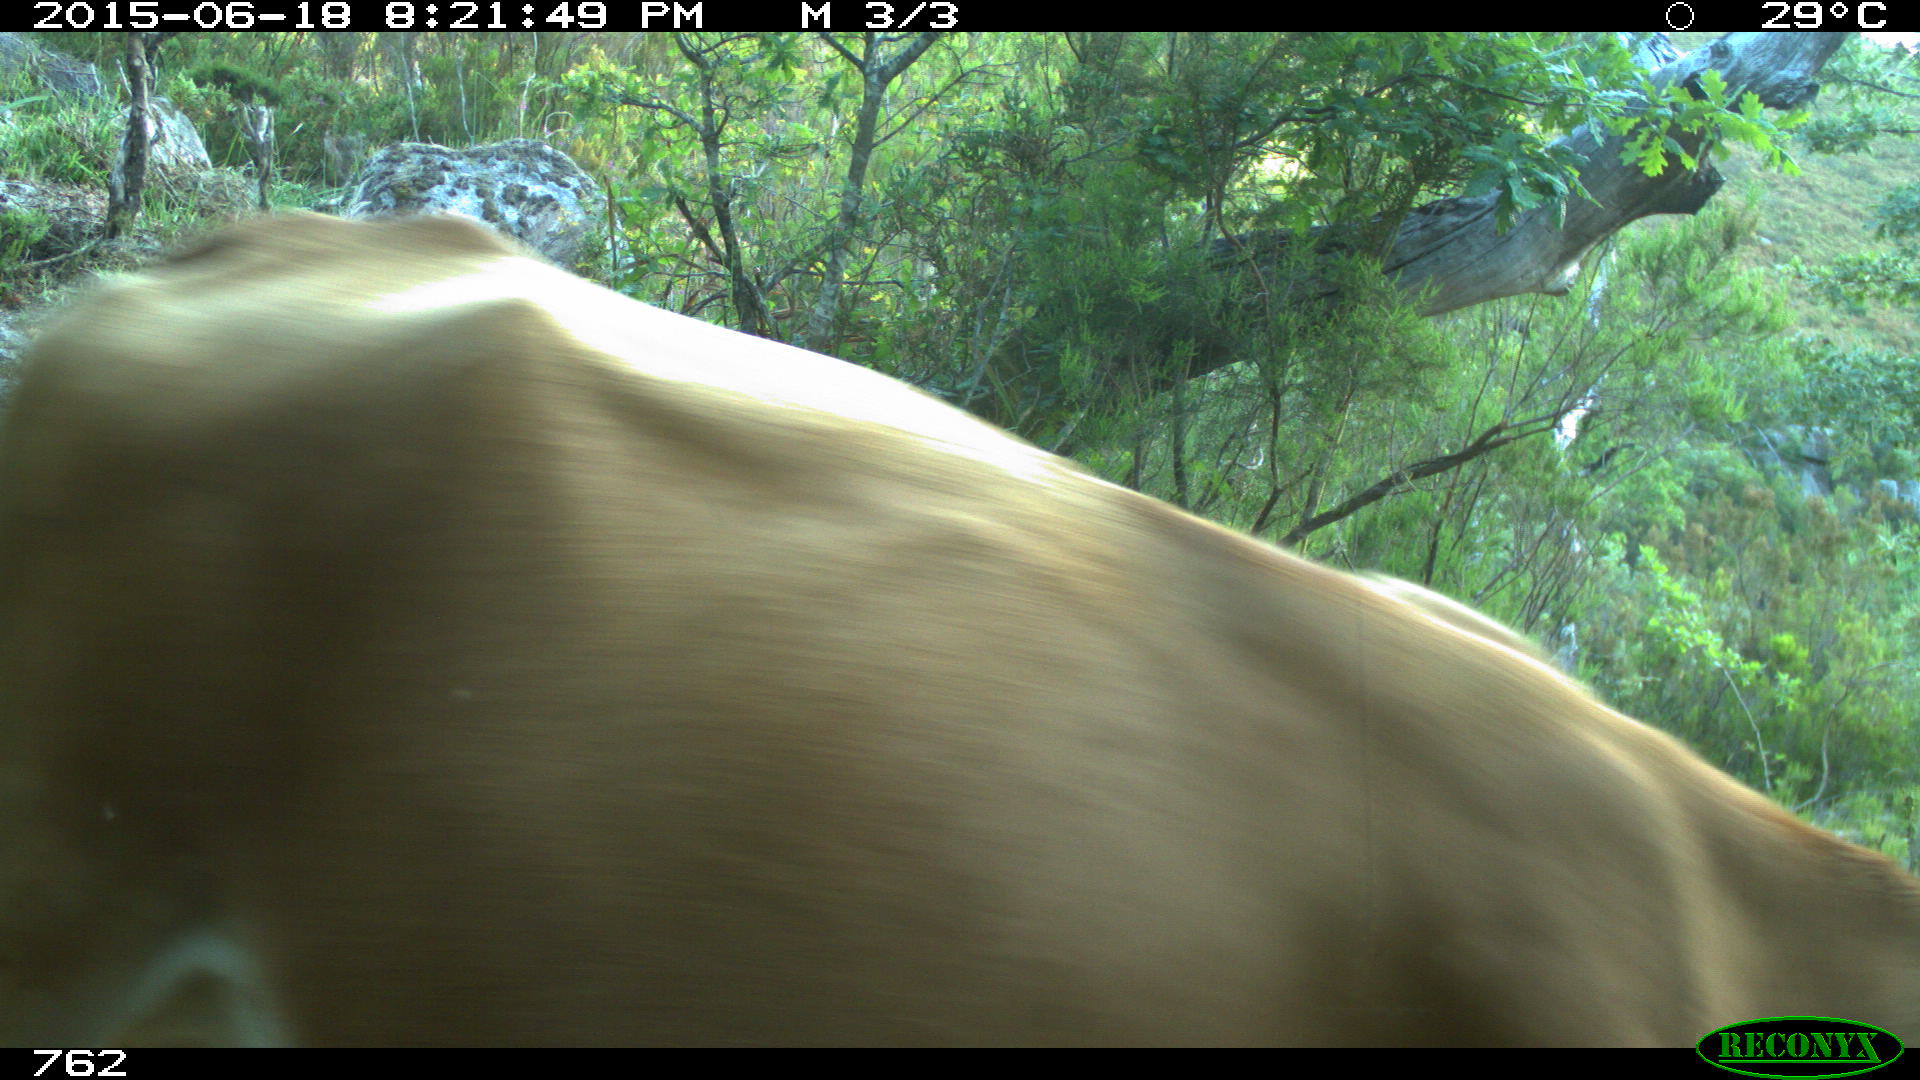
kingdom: Animalia
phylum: Chordata
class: Mammalia
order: Artiodactyla
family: Bovidae
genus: Bos
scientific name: Bos taurus
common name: Domesticated cattle
